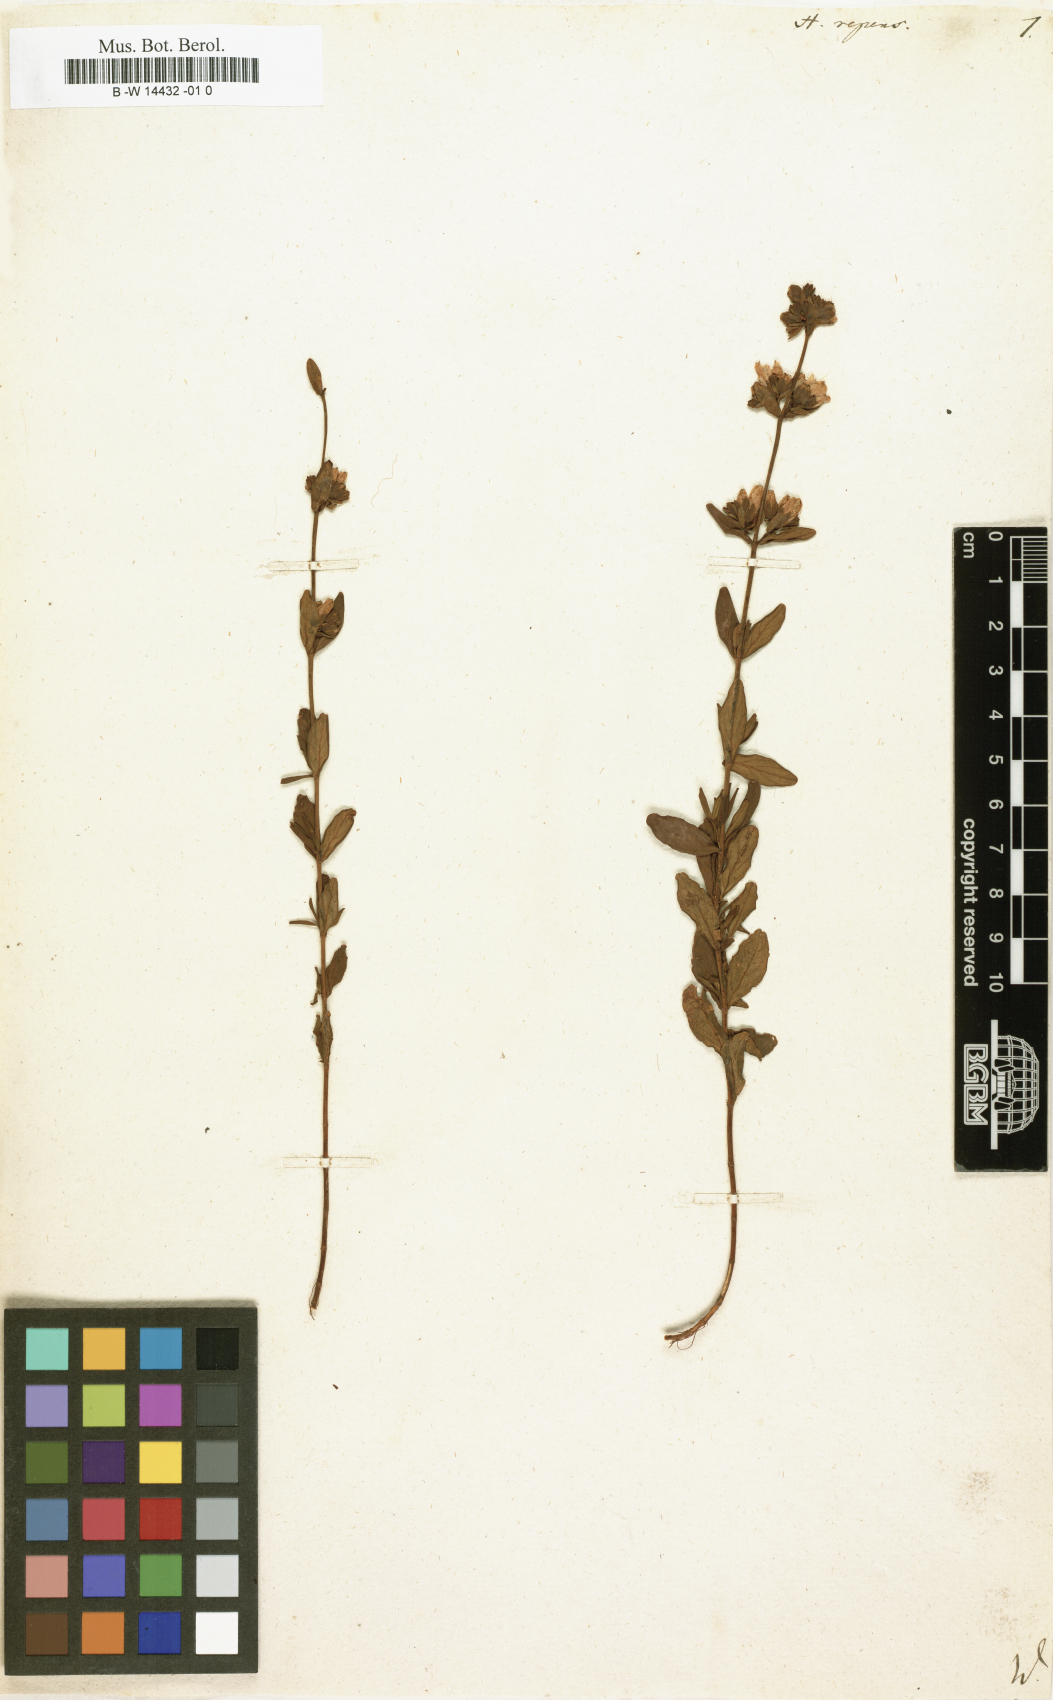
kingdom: Plantae
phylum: Tracheophyta
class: Magnoliopsida
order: Malpighiales
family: Hypericaceae
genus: Hypericum
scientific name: Hypericum repens
